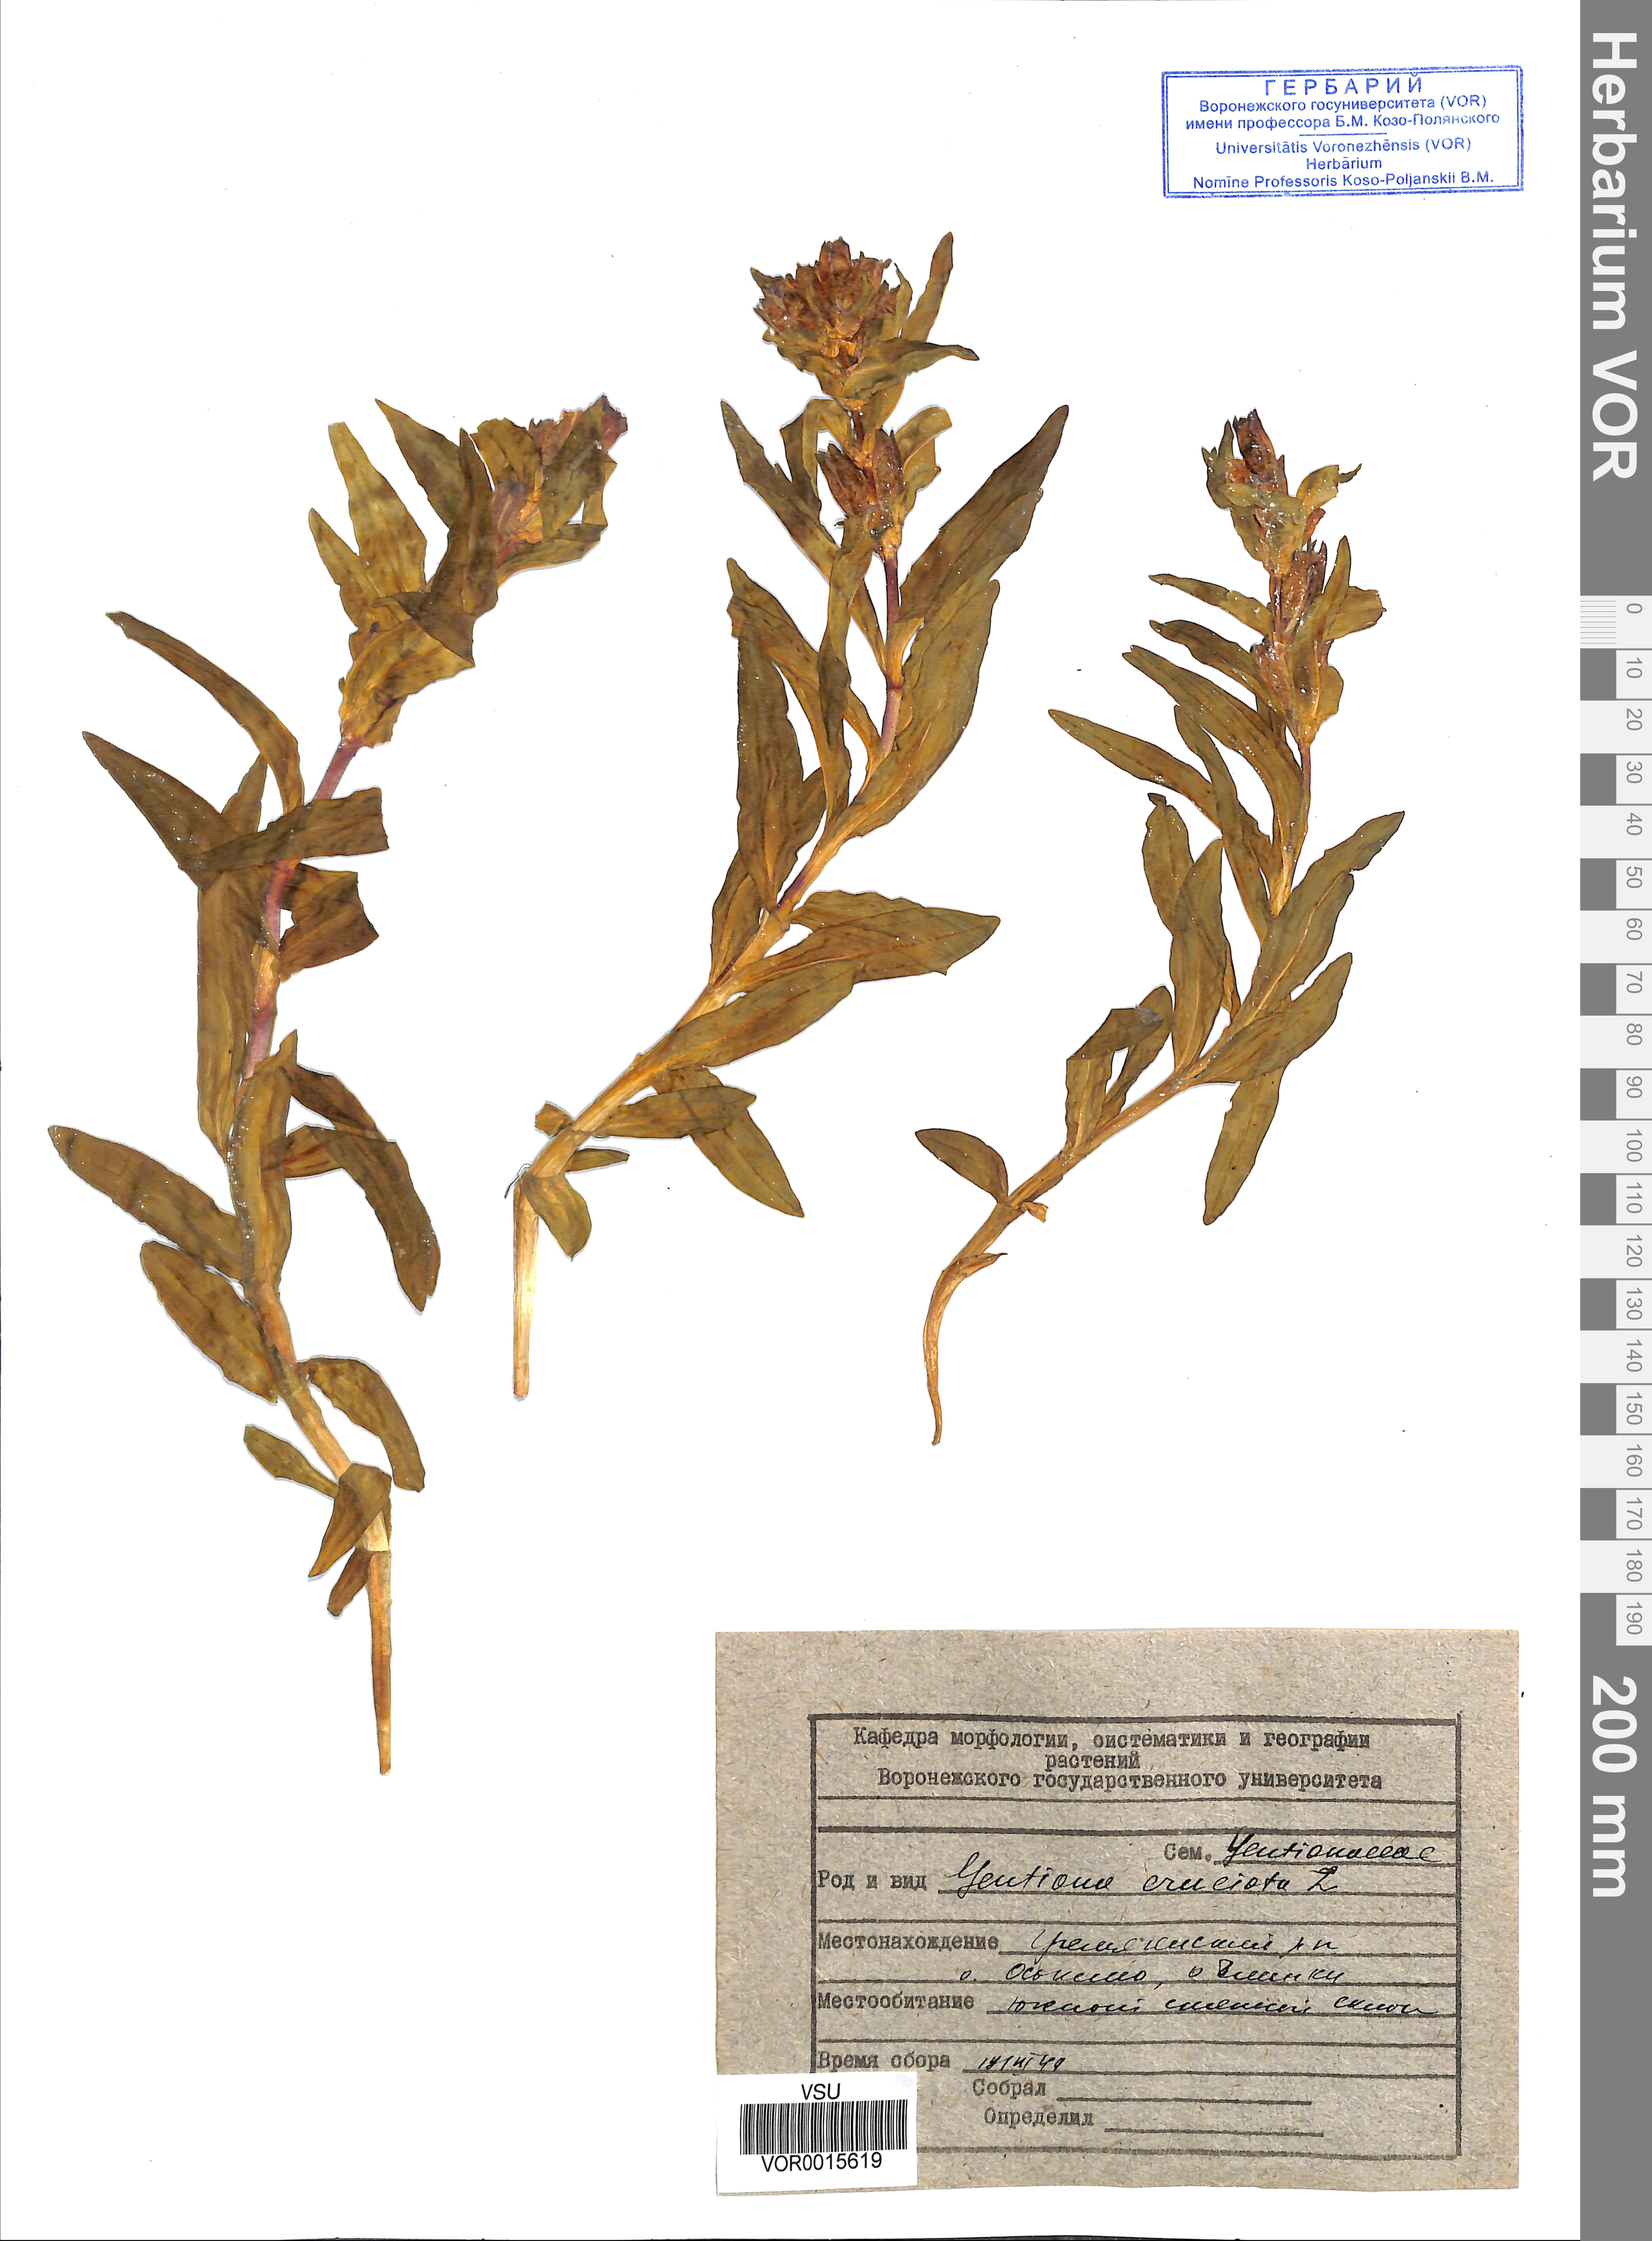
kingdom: Plantae
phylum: Tracheophyta
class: Magnoliopsida
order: Gentianales
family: Gentianaceae
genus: Gentiana
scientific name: Gentiana cruciata
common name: Cross gentian
